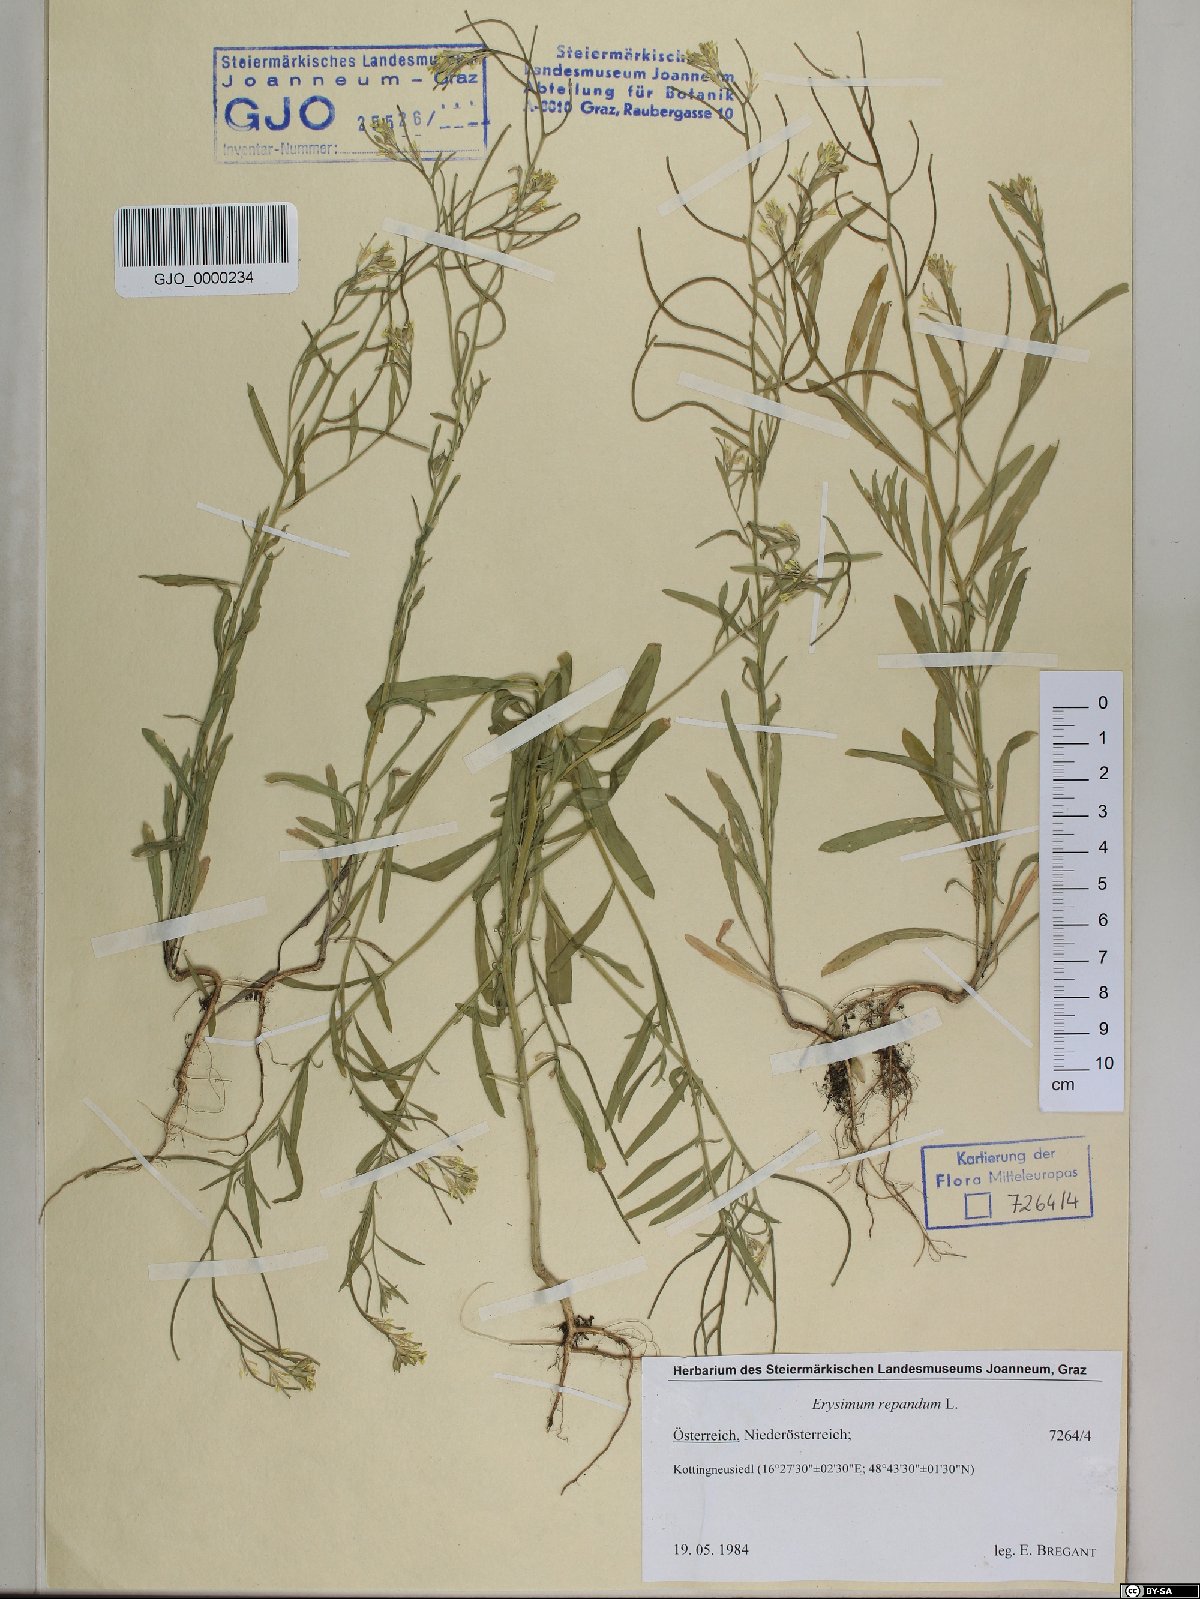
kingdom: Plantae
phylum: Tracheophyta
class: Magnoliopsida
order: Brassicales
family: Brassicaceae
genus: Erysimum
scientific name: Erysimum repandum
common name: Spreading wallflower
